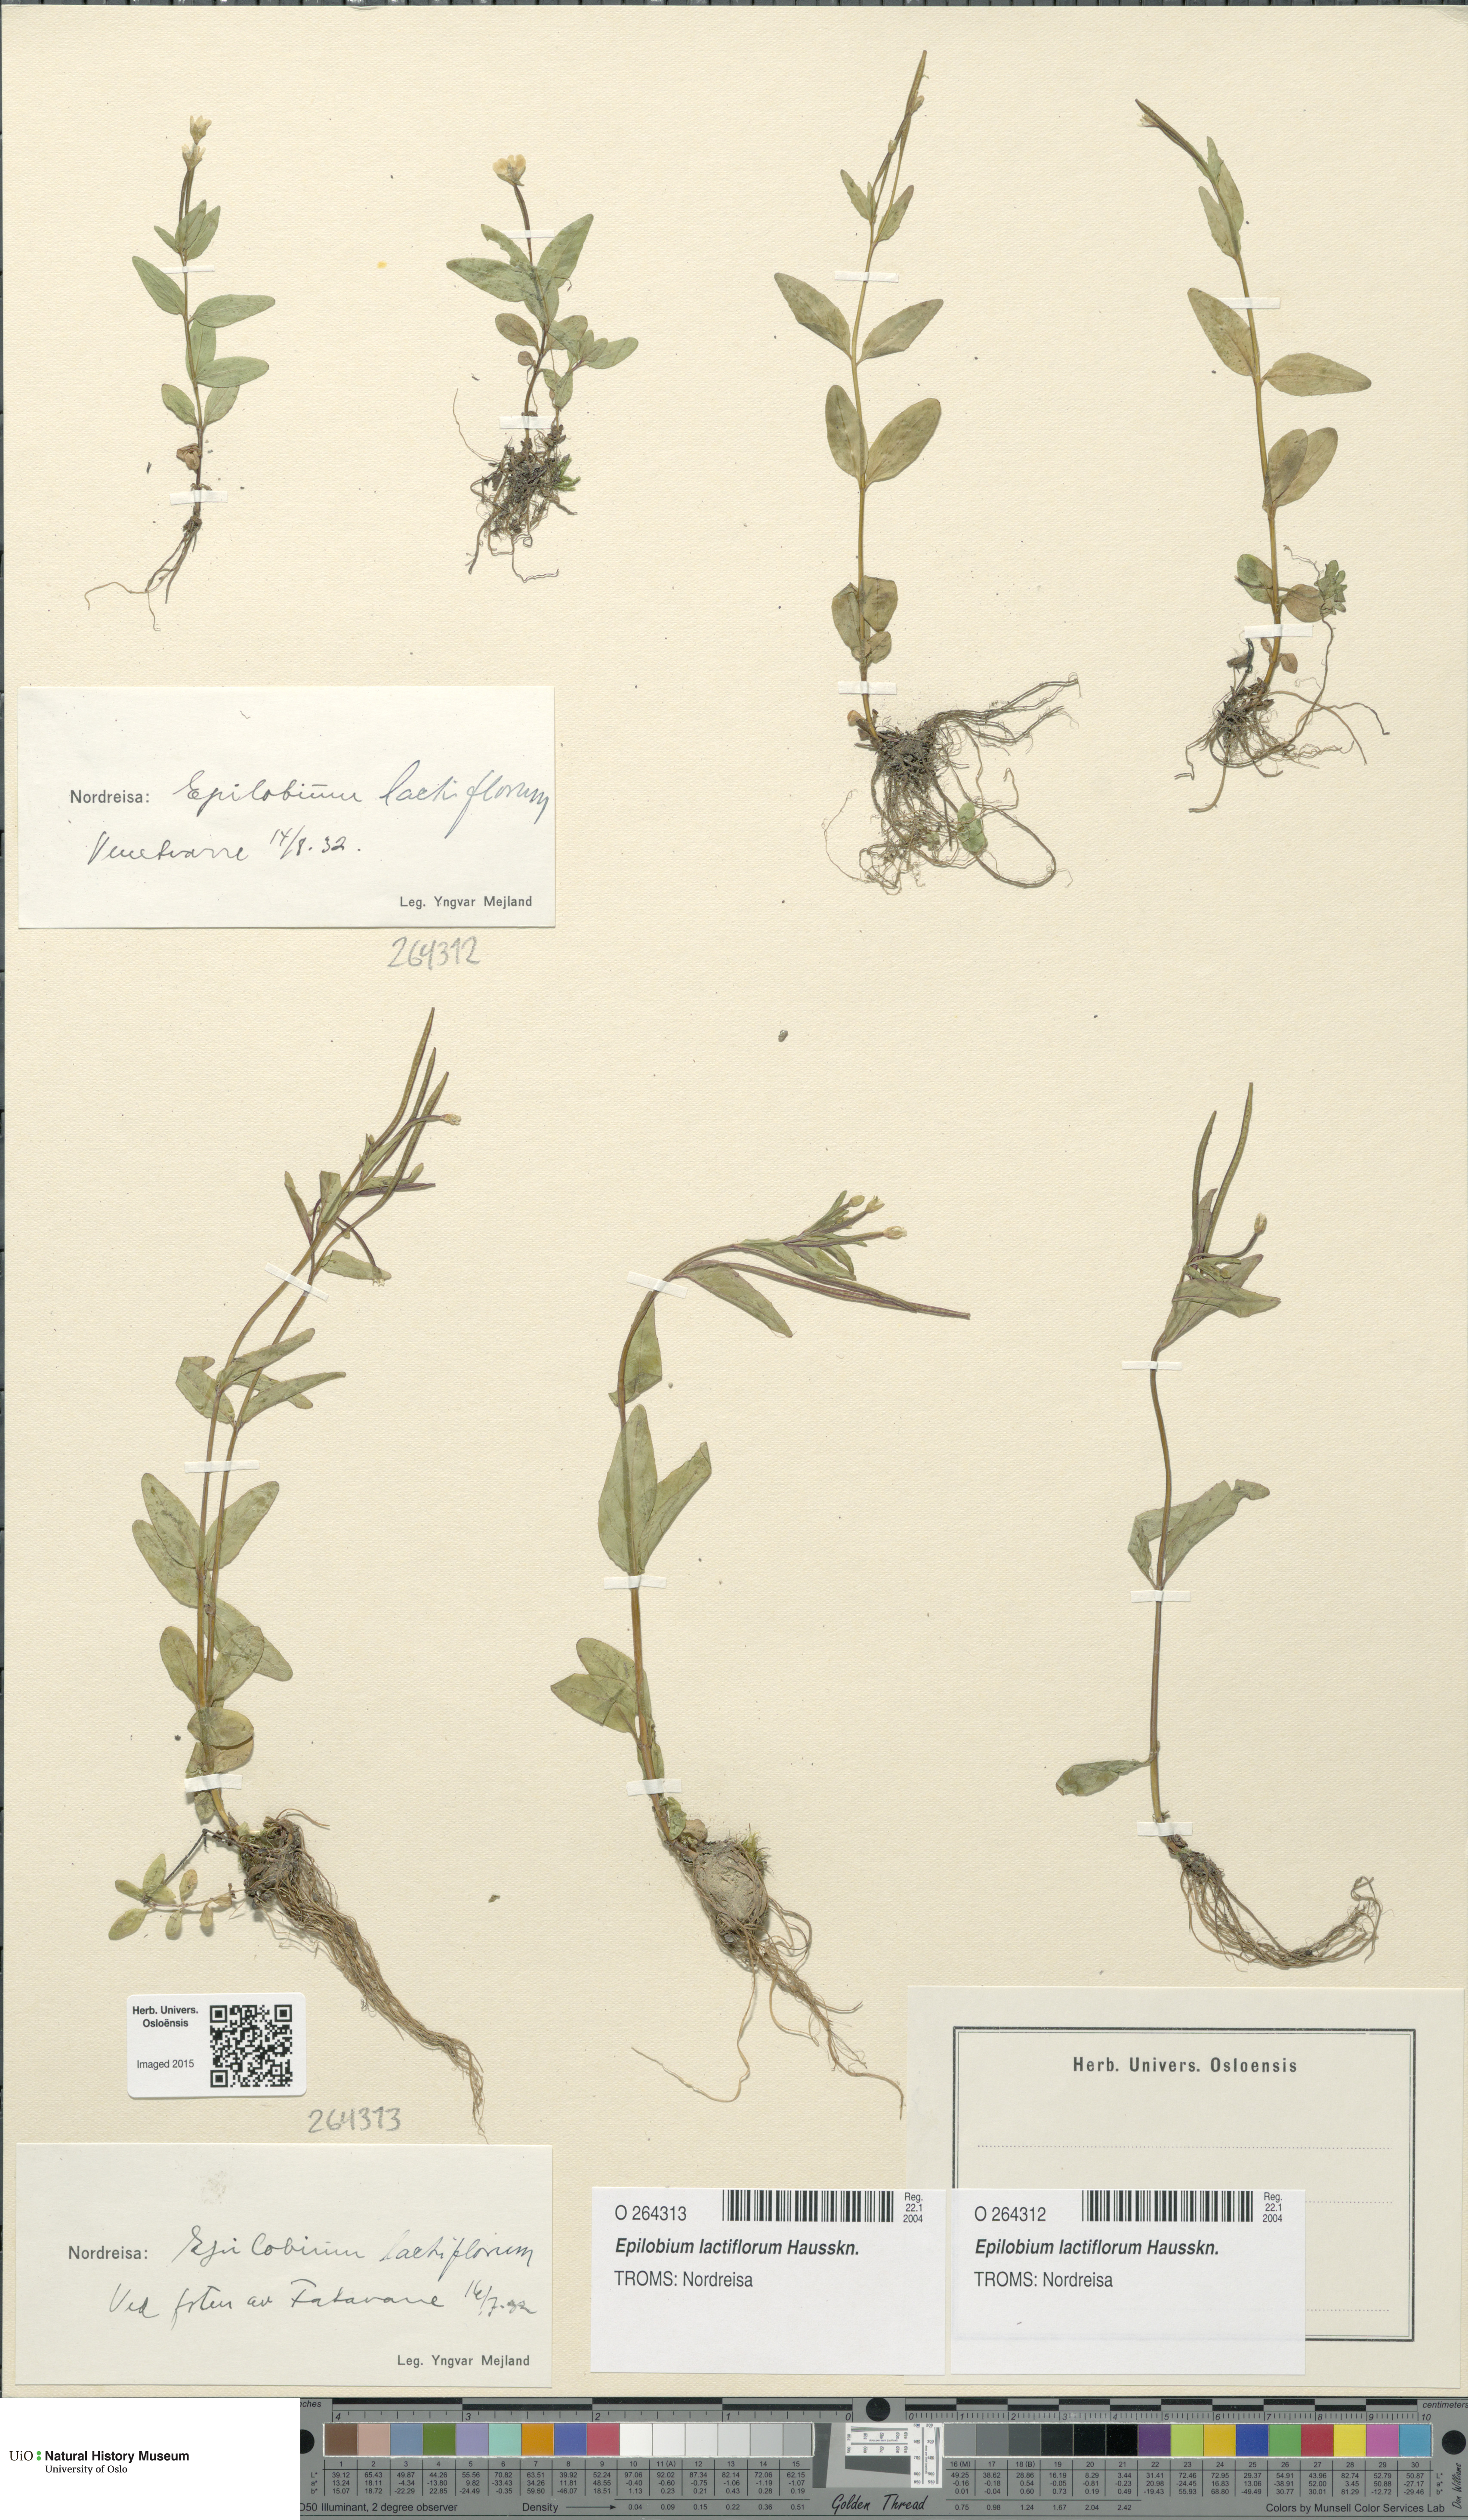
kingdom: Plantae
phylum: Tracheophyta
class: Magnoliopsida
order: Myrtales
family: Onagraceae
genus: Epilobium
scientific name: Epilobium lactiflorum
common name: Milkflower willowherb
